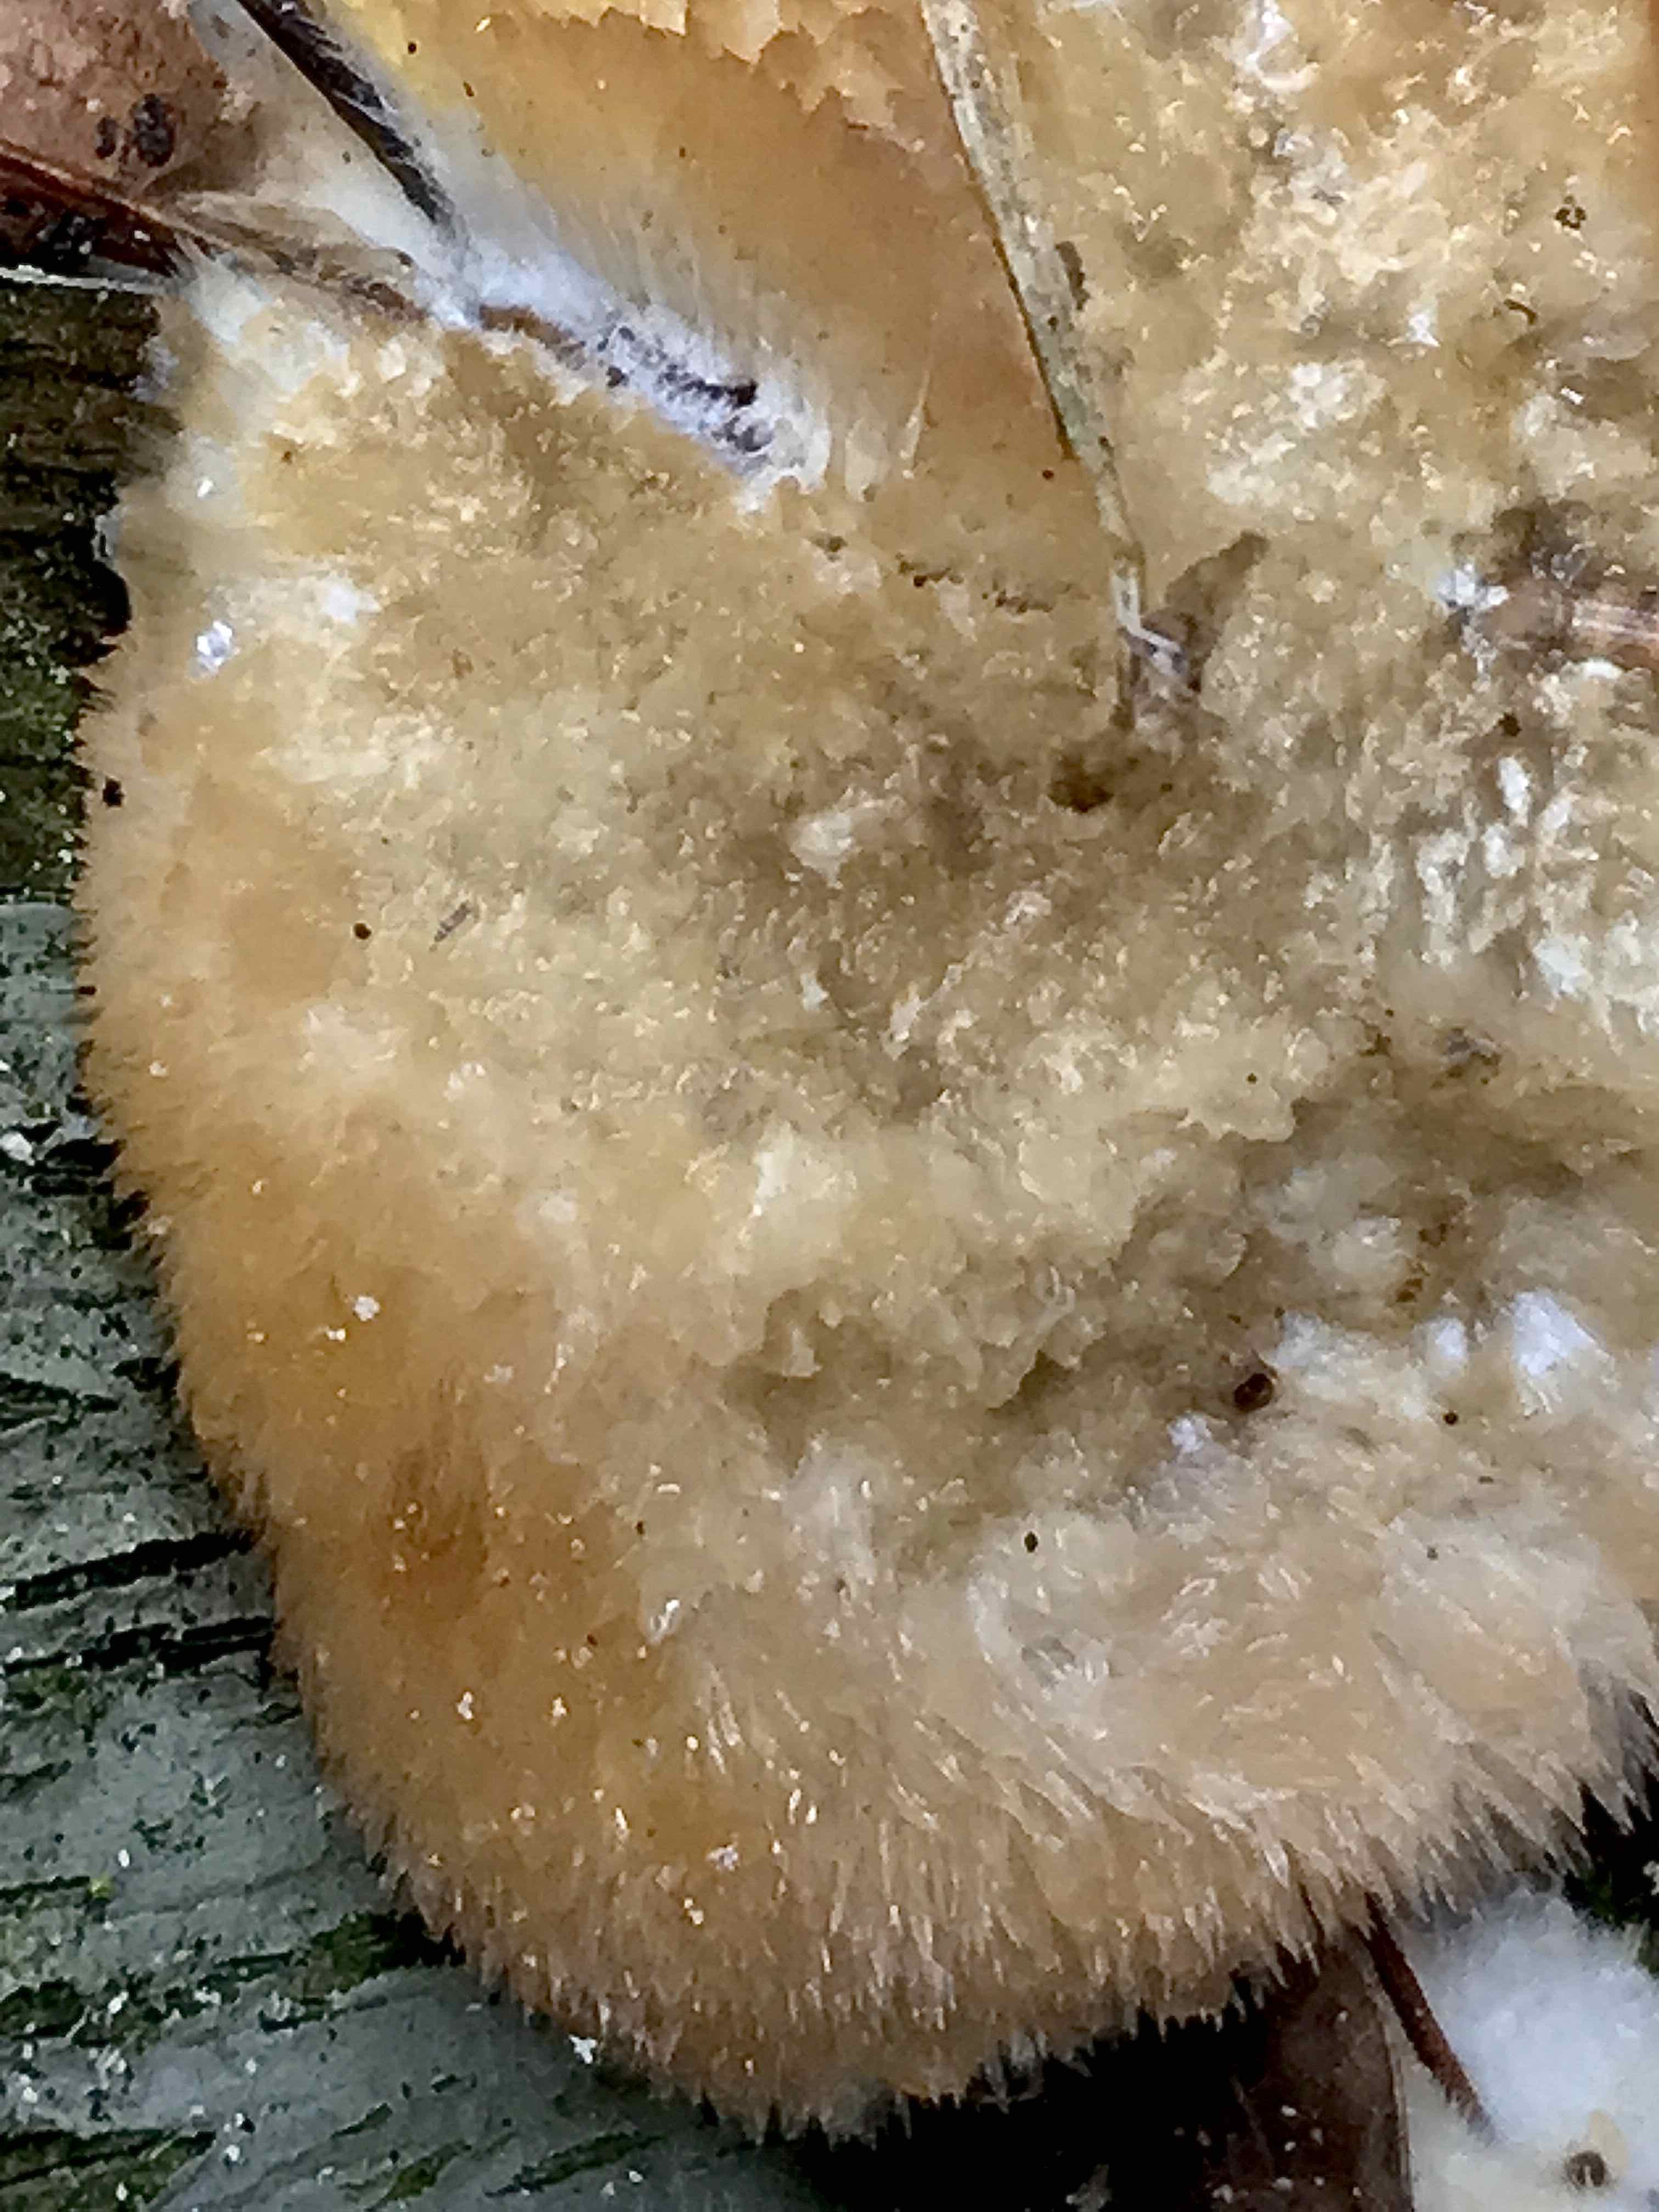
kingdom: Fungi
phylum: Basidiomycota
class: Agaricomycetes
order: Polyporales
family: Dacryobolaceae
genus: Postia
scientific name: Postia ptychogaster
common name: støvende kødporesvamp
